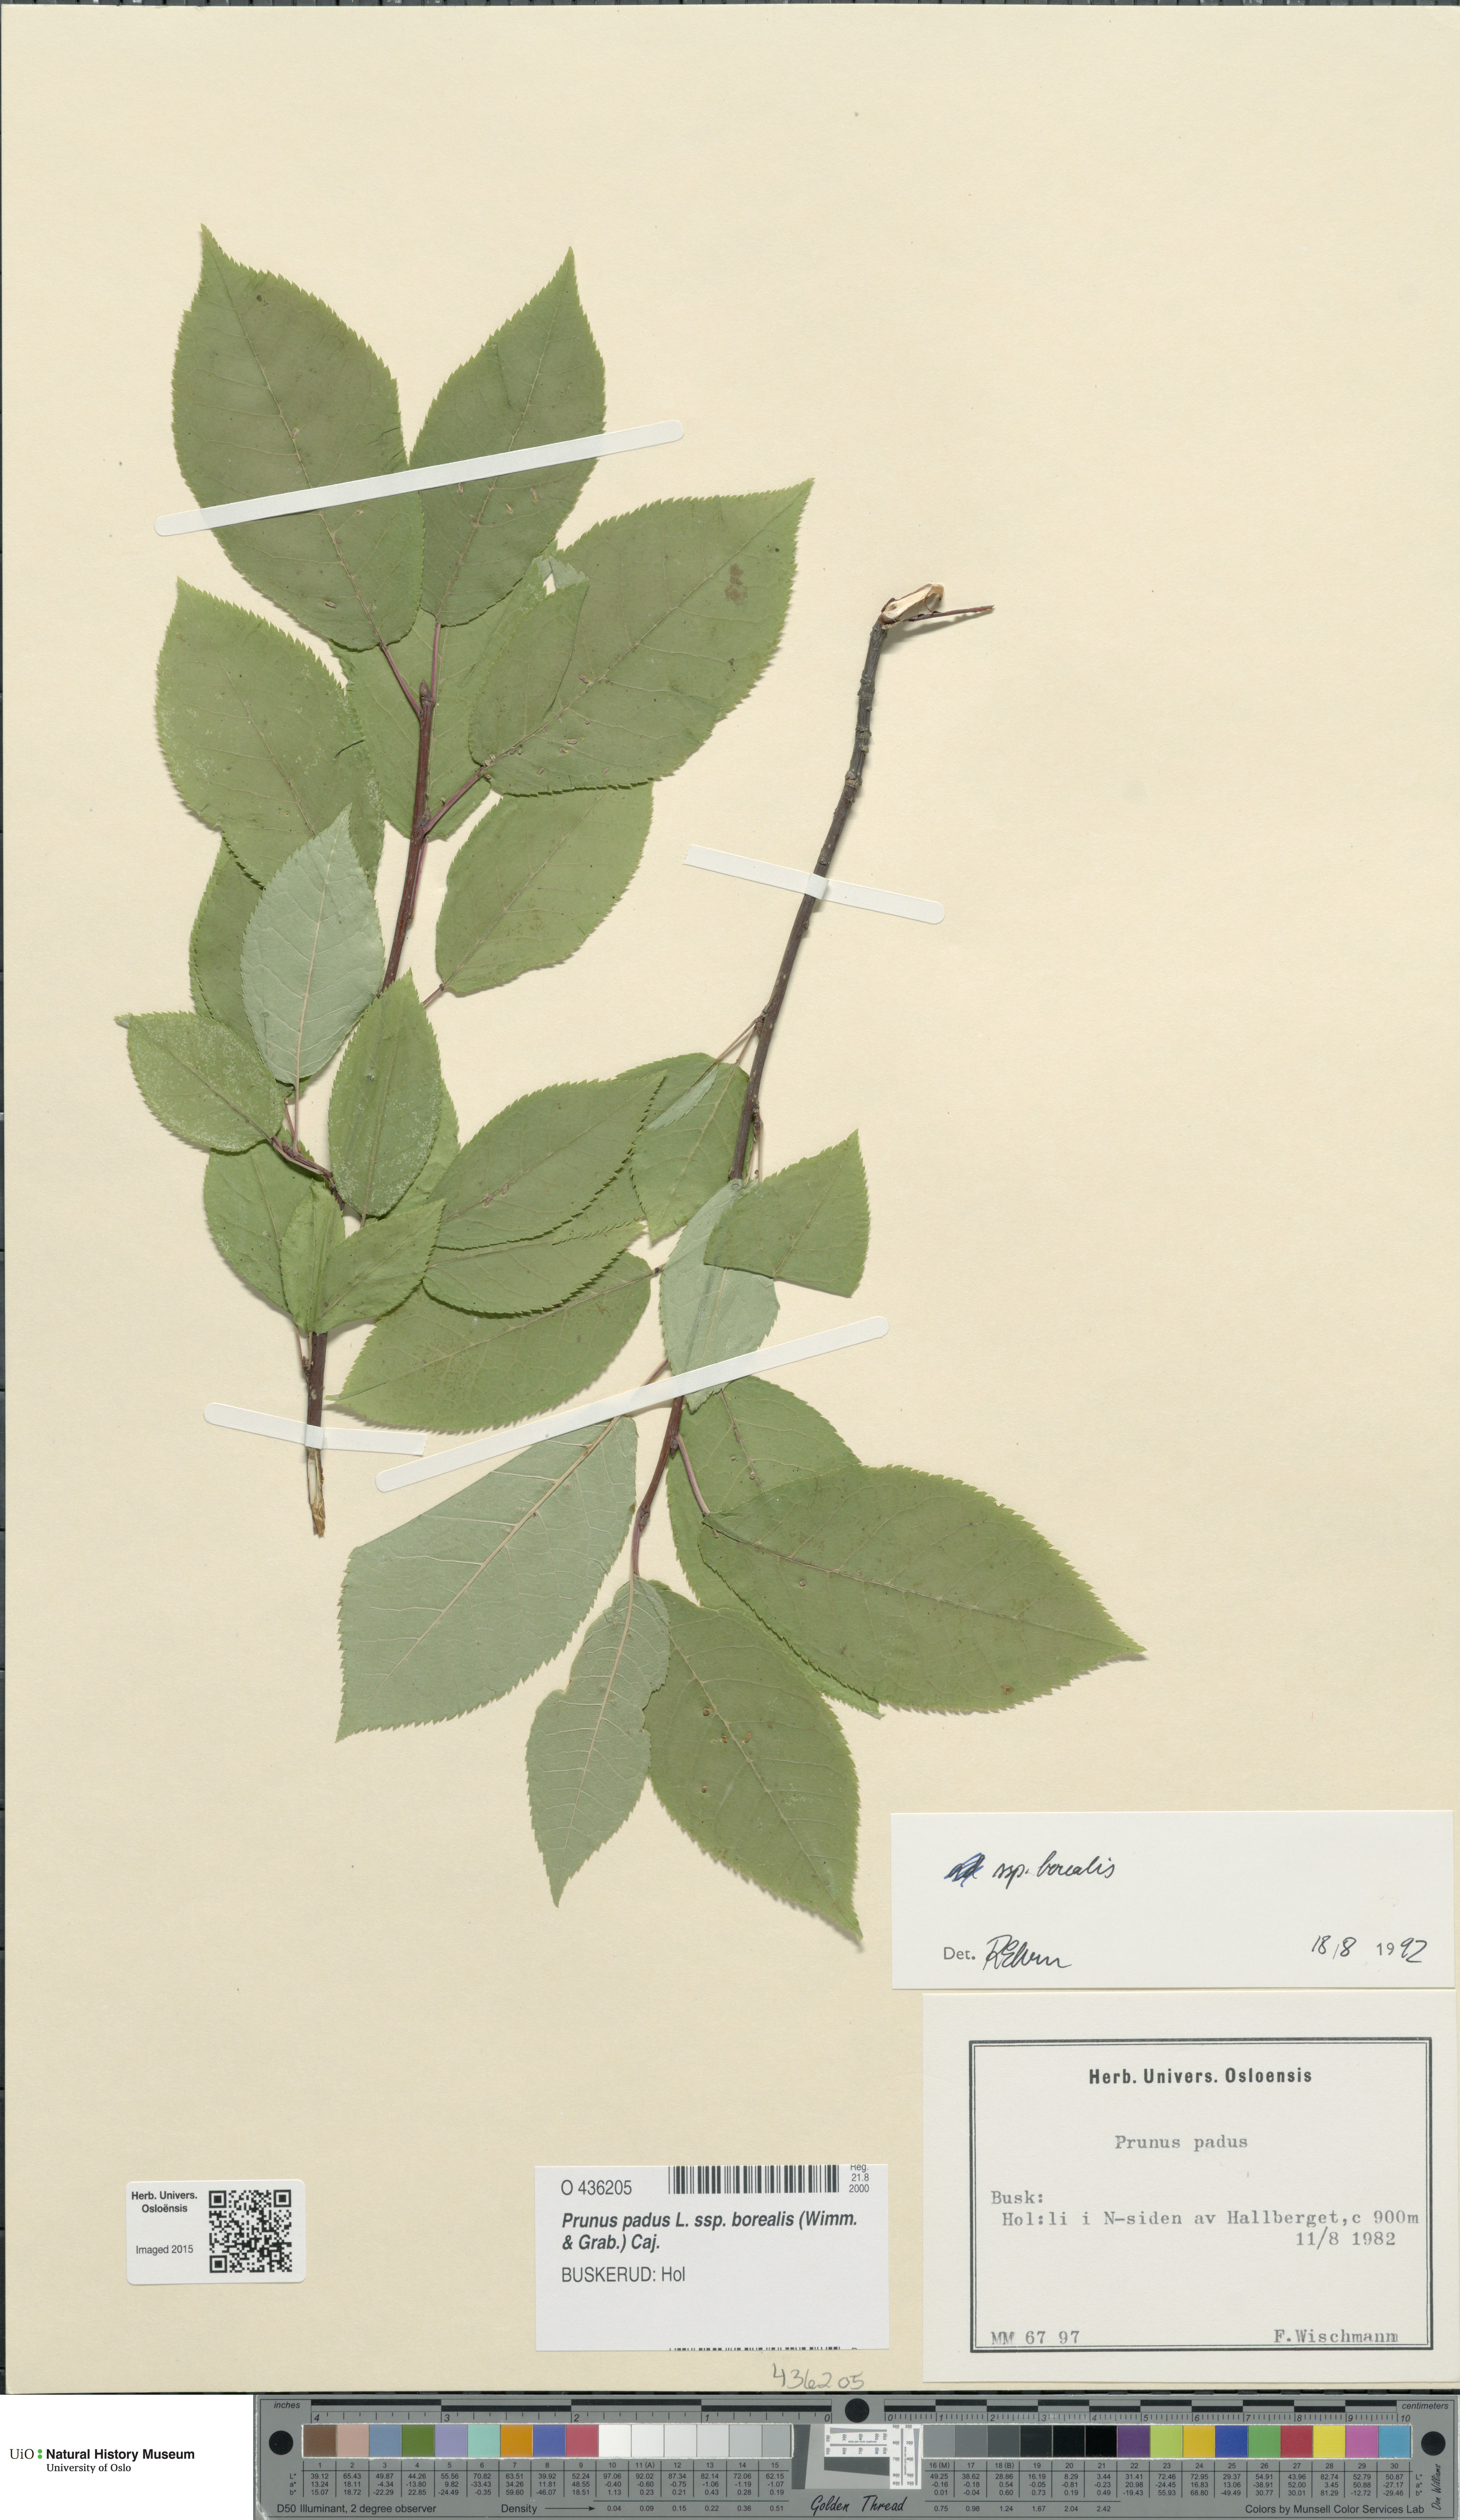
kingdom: Plantae
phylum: Tracheophyta
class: Magnoliopsida
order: Rosales
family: Rosaceae
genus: Prunus
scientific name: Prunus padus
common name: Bird cherry
